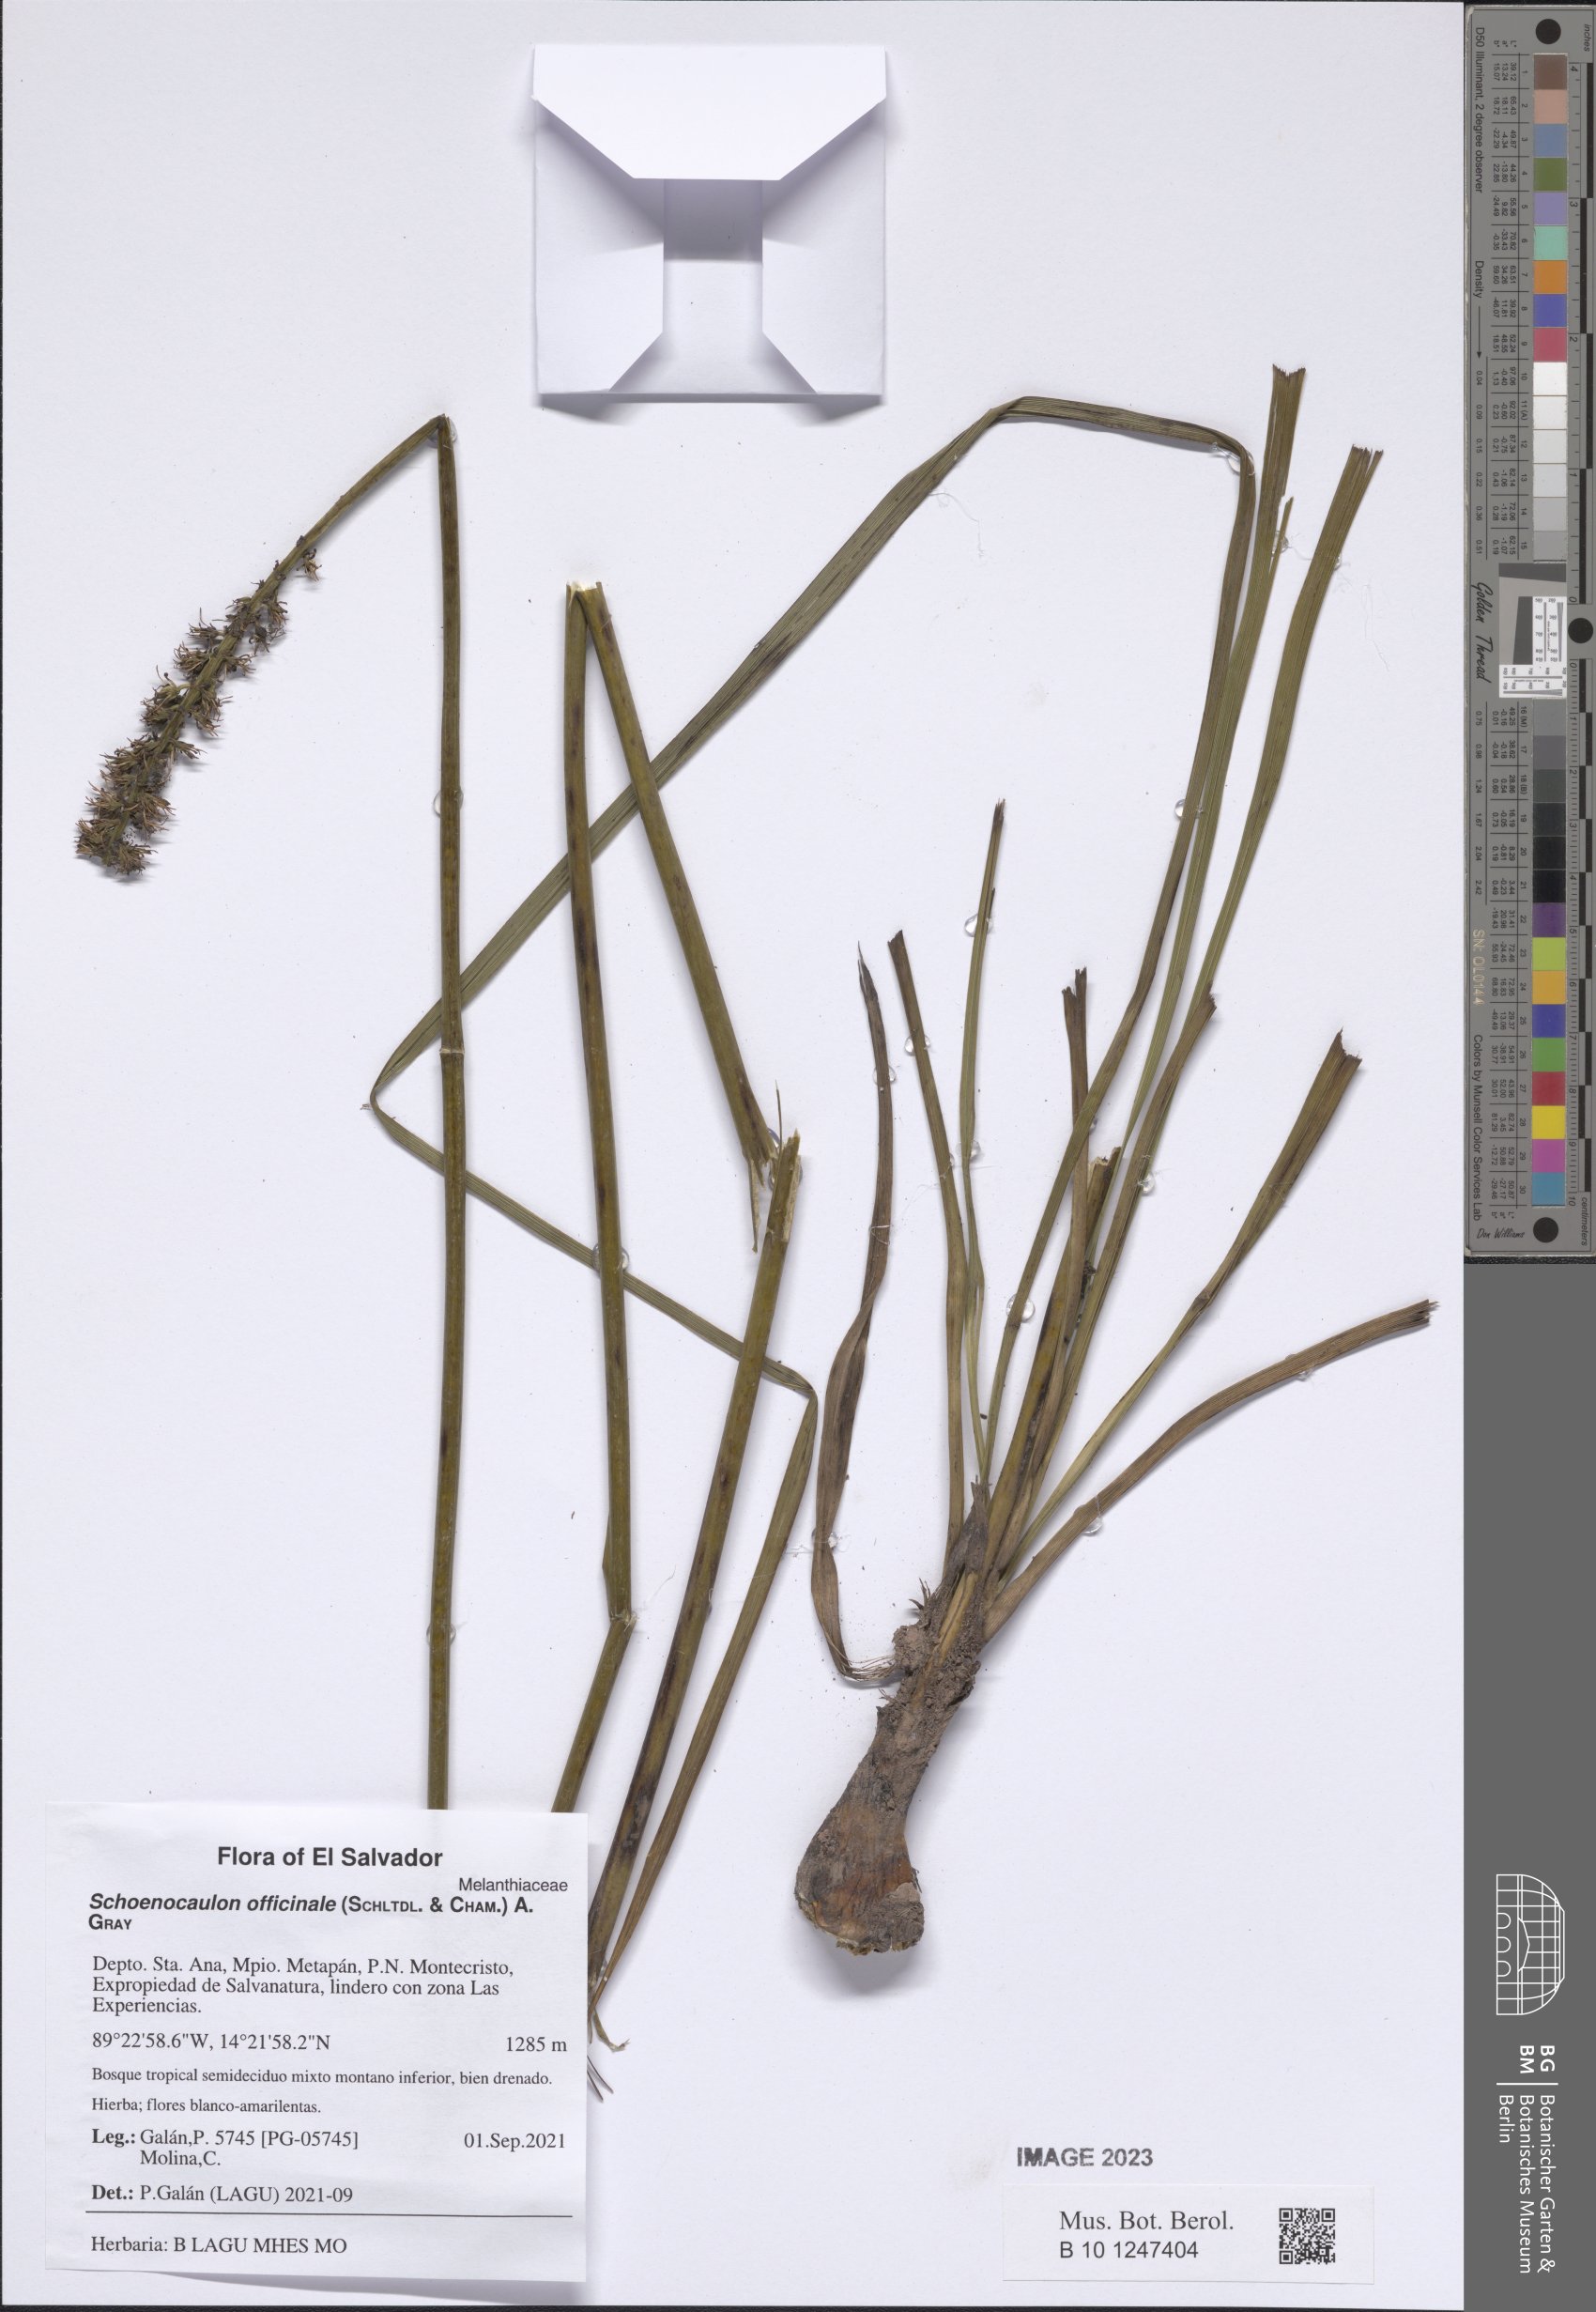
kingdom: Plantae
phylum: Tracheophyta
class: Liliopsida
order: Liliales
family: Melanthiaceae
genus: Schoenocaulon
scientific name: Schoenocaulon officinale
